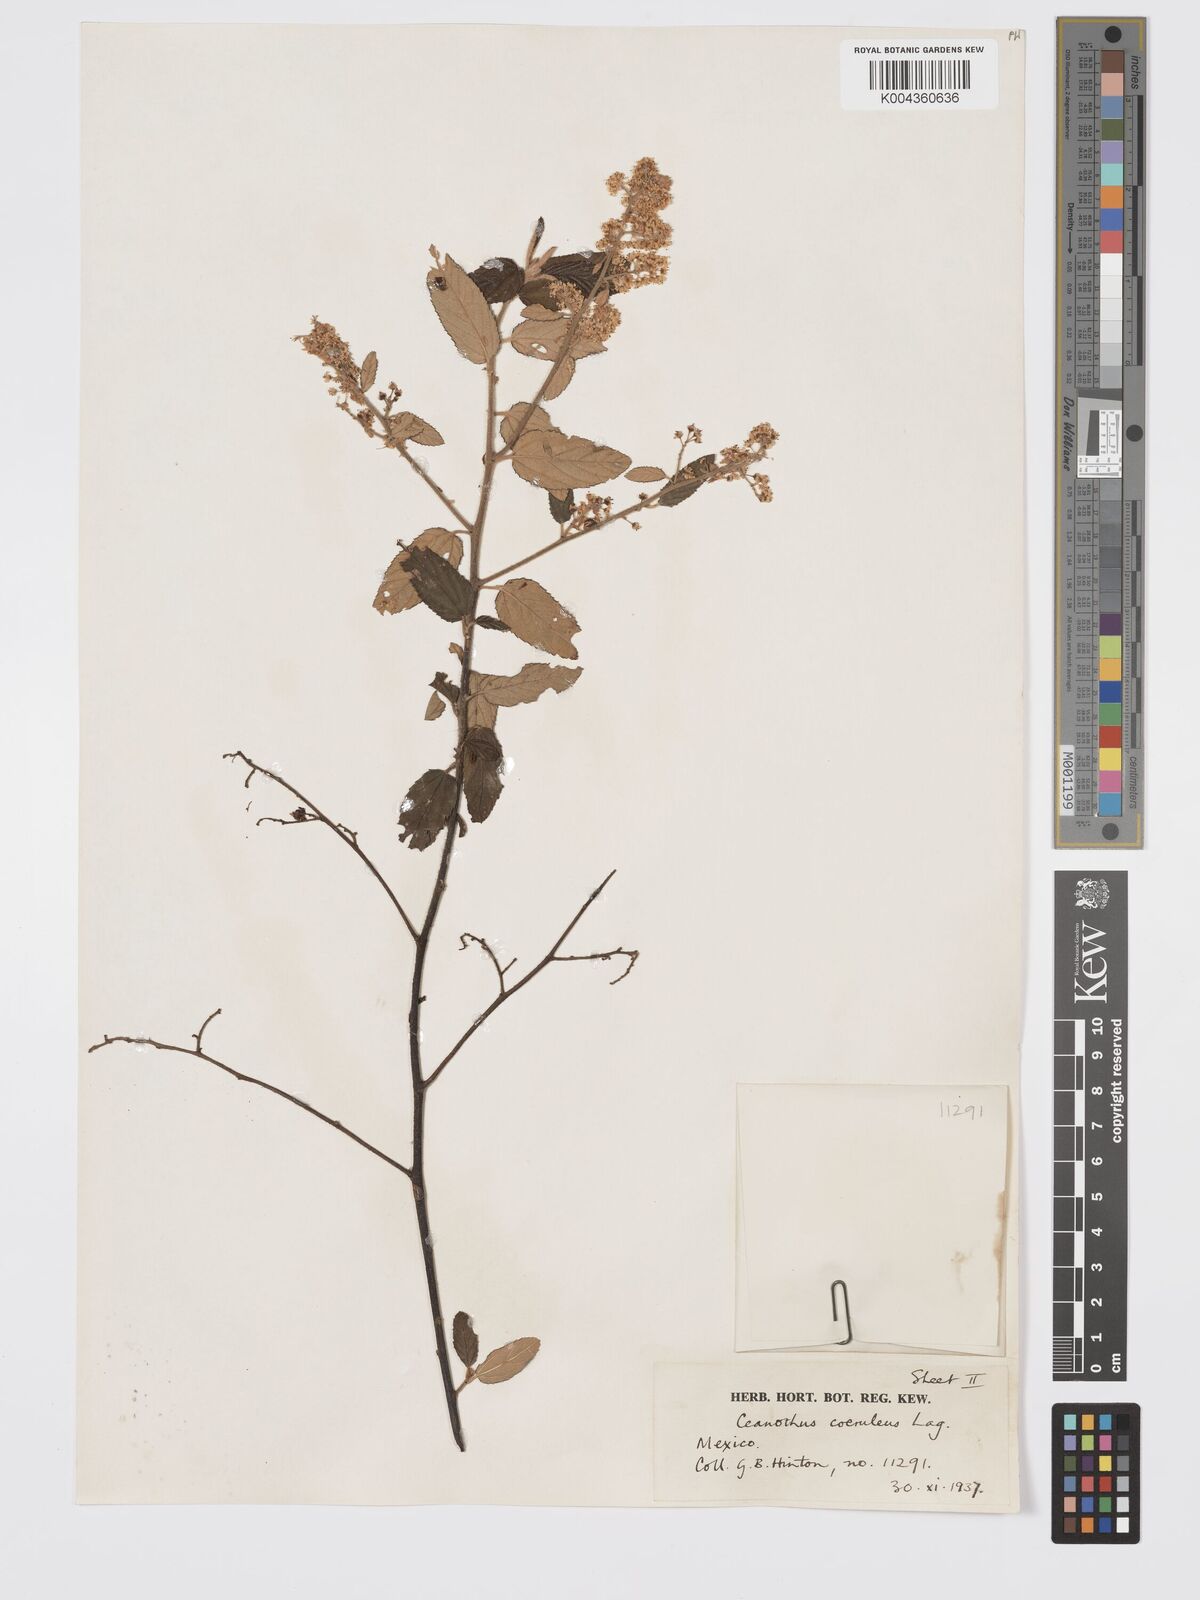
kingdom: Plantae
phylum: Tracheophyta
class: Magnoliopsida
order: Rosales
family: Rhamnaceae
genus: Ceanothus
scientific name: Ceanothus caeruleus
